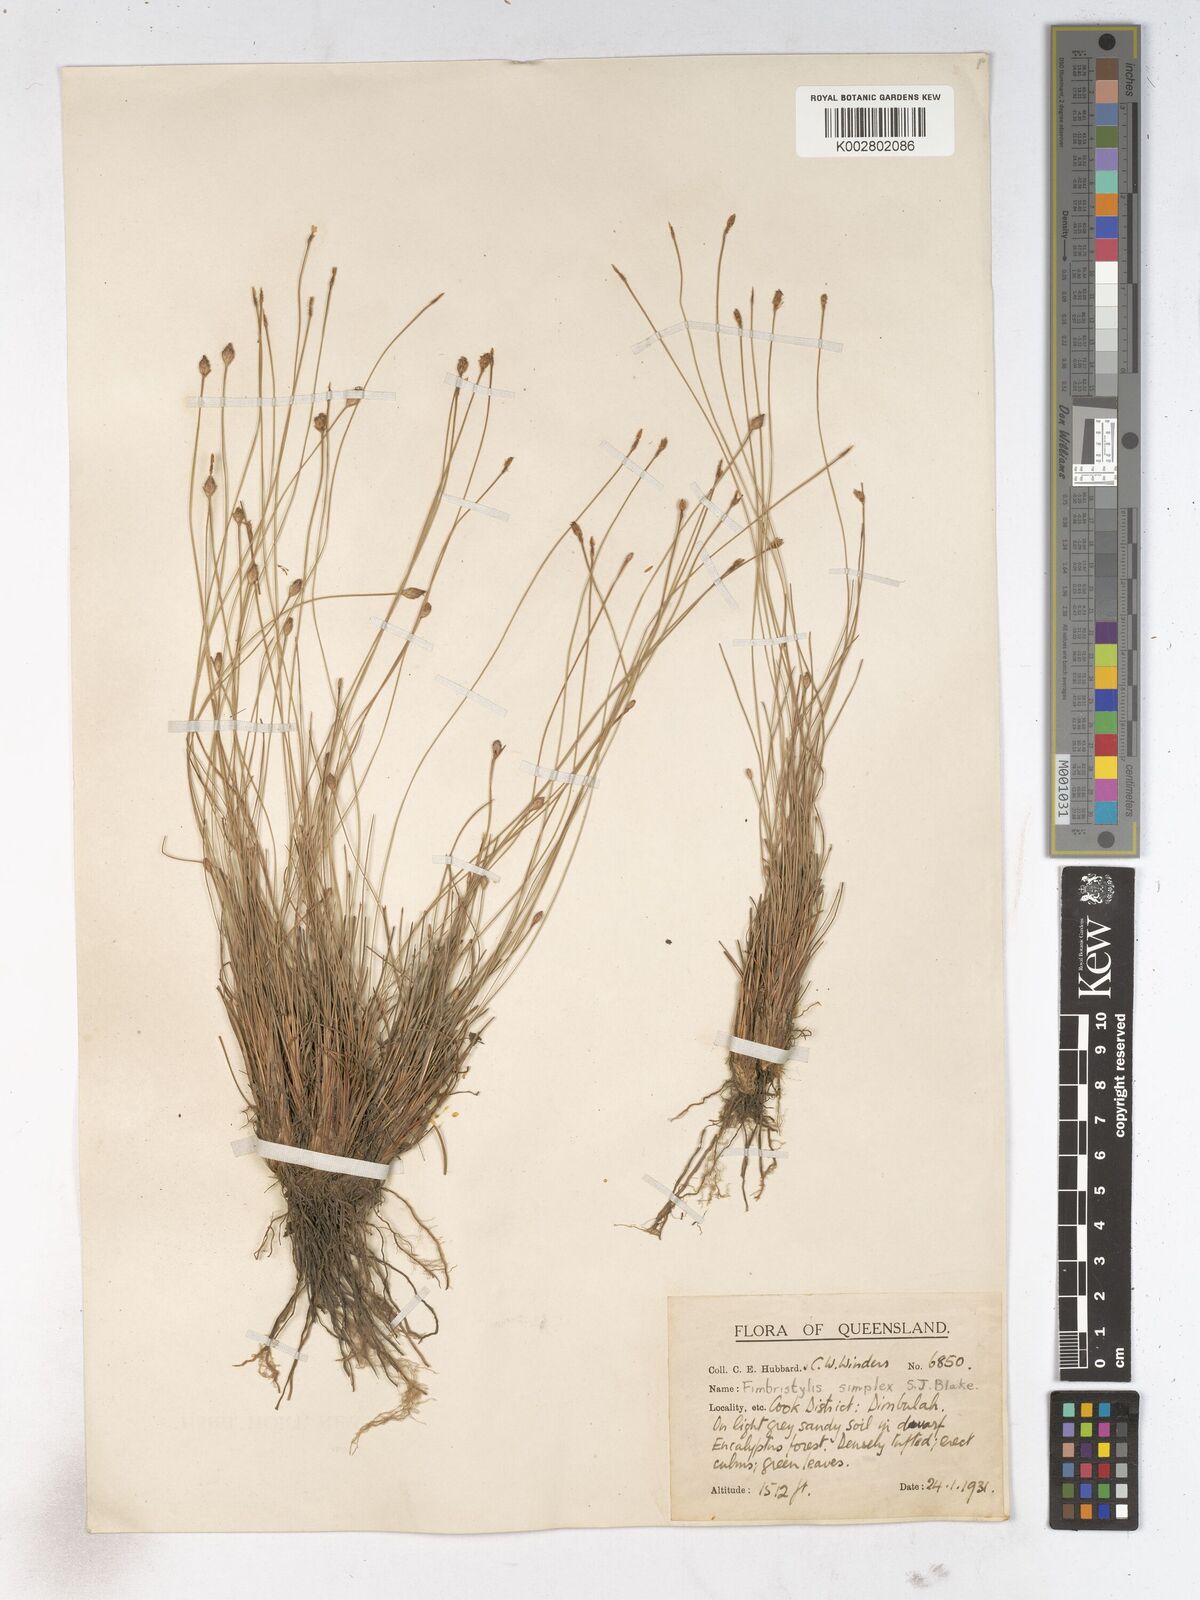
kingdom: Plantae
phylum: Tracheophyta
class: Liliopsida
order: Poales
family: Cyperaceae
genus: Fimbristylis
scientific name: Fimbristylis simplex
